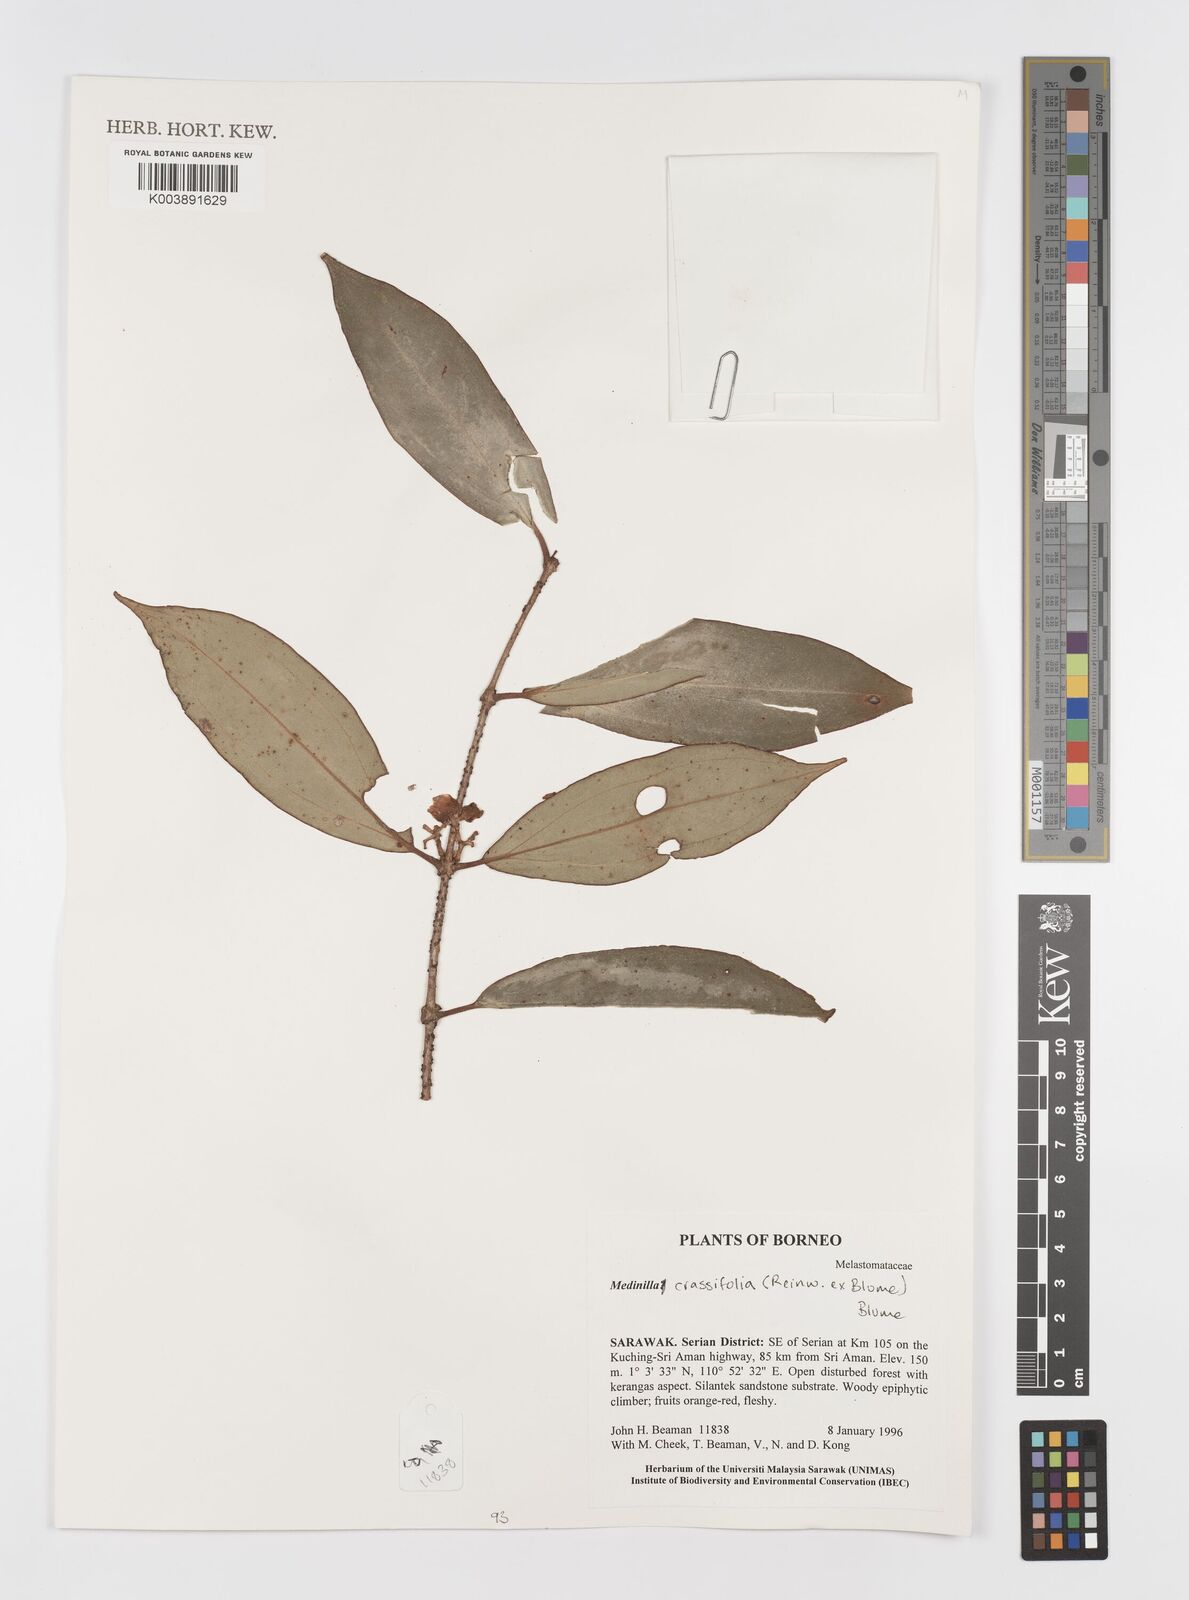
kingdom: Plantae
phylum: Tracheophyta
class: Magnoliopsida
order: Myrtales
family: Melastomataceae
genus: Medinilla
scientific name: Medinilla crassifolia
